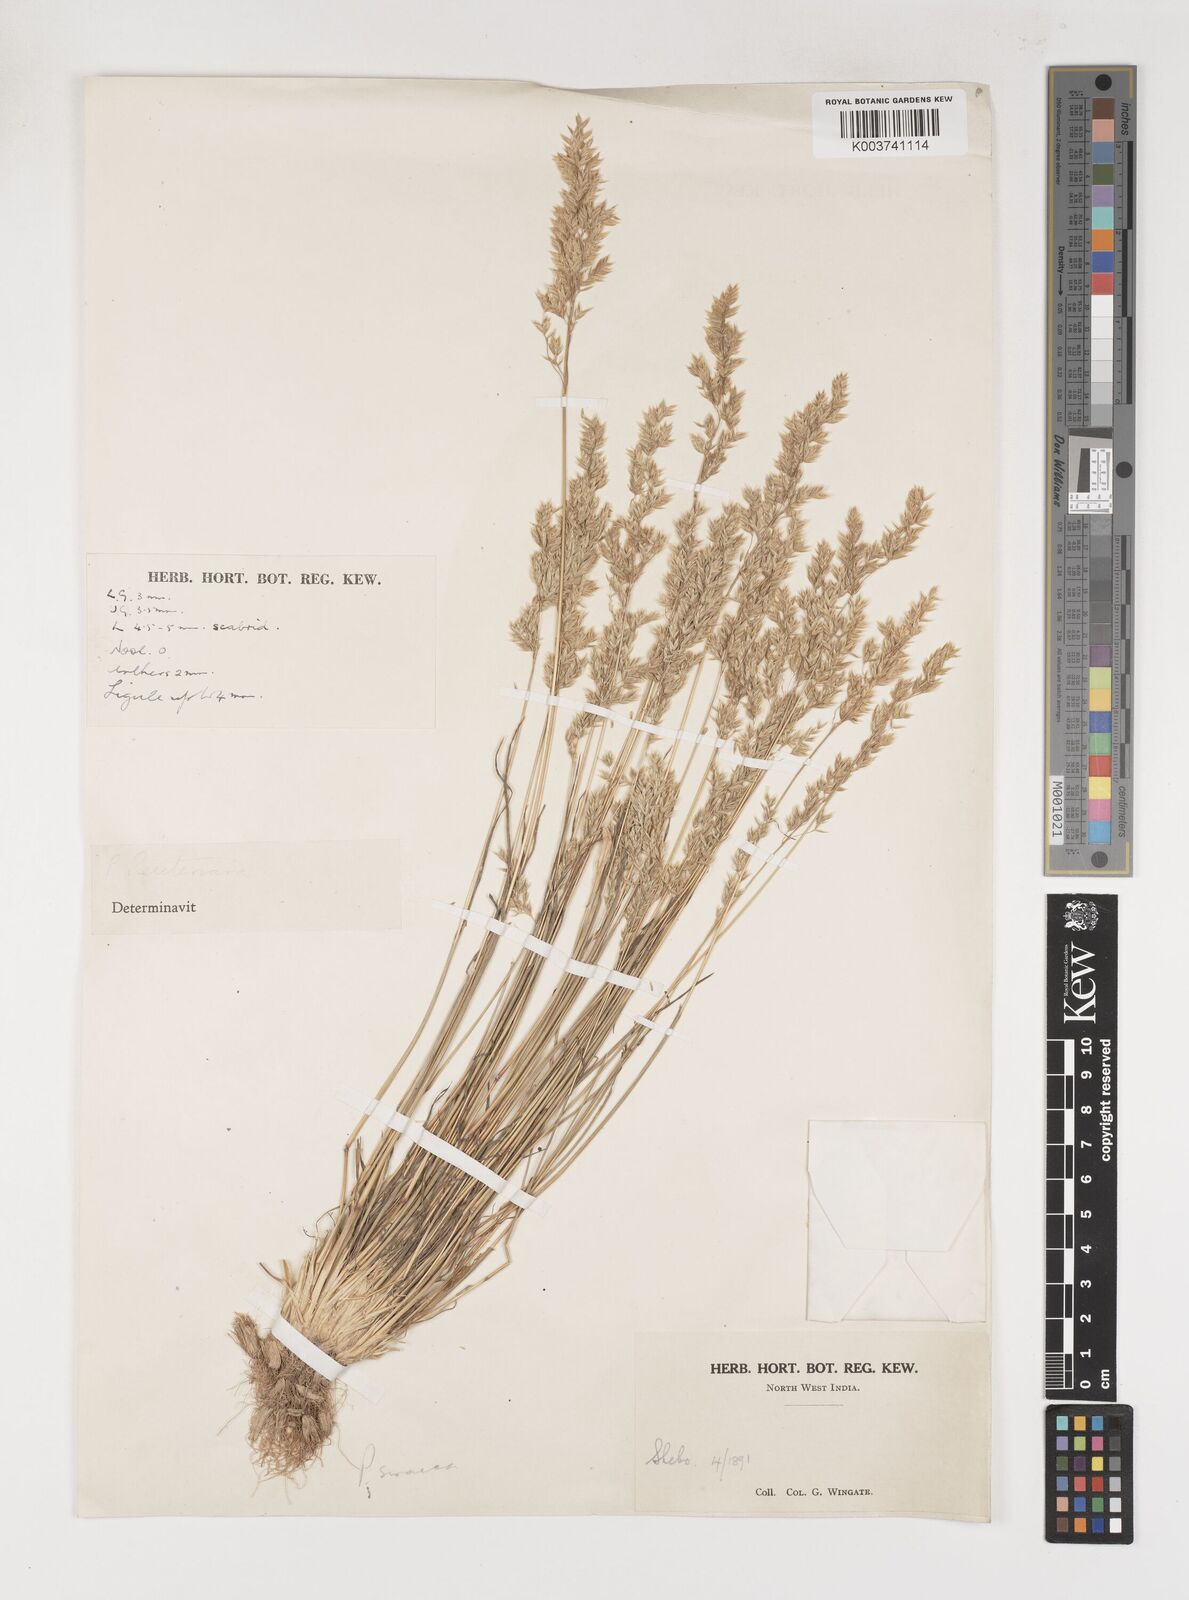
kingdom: Plantae
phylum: Tracheophyta
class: Liliopsida
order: Poales
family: Poaceae
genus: Poa
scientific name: Poa sinaica
